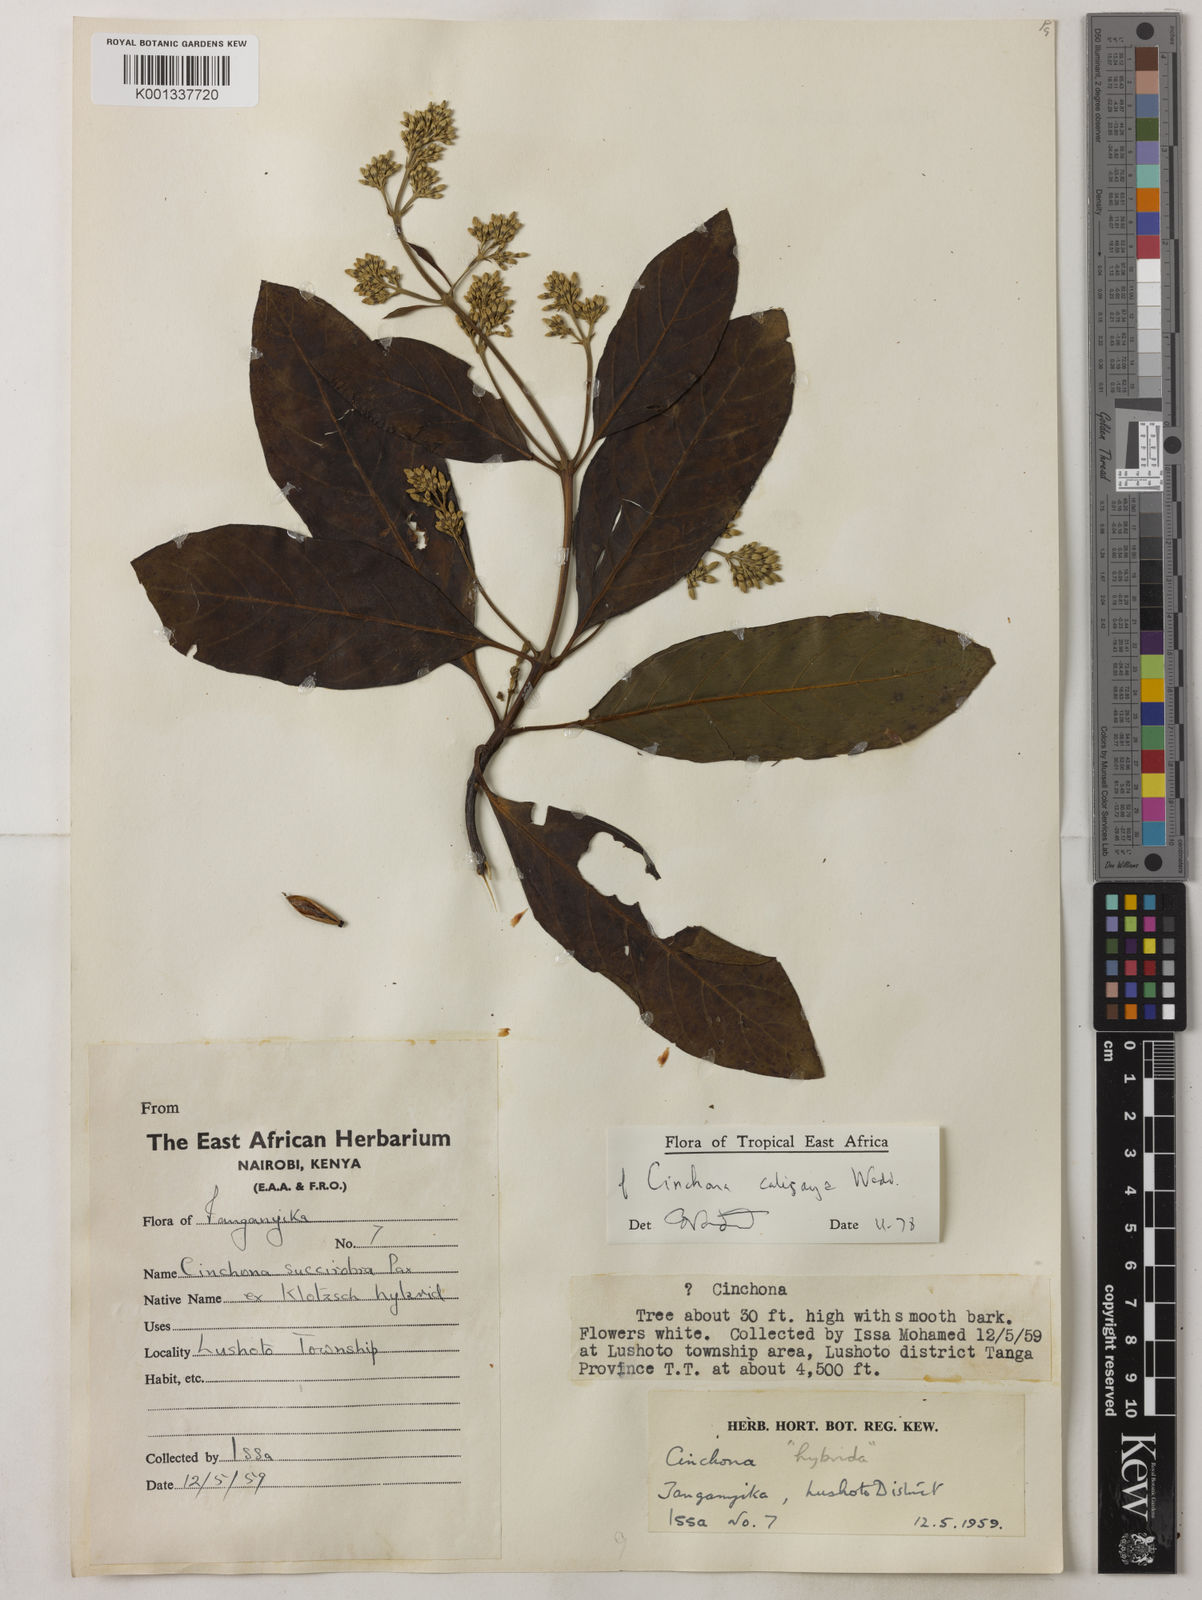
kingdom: Plantae
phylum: Tracheophyta
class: Magnoliopsida
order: Gentianales
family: Rubiaceae
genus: Cinchona
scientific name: Cinchona calisaya
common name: Ledgerbark
